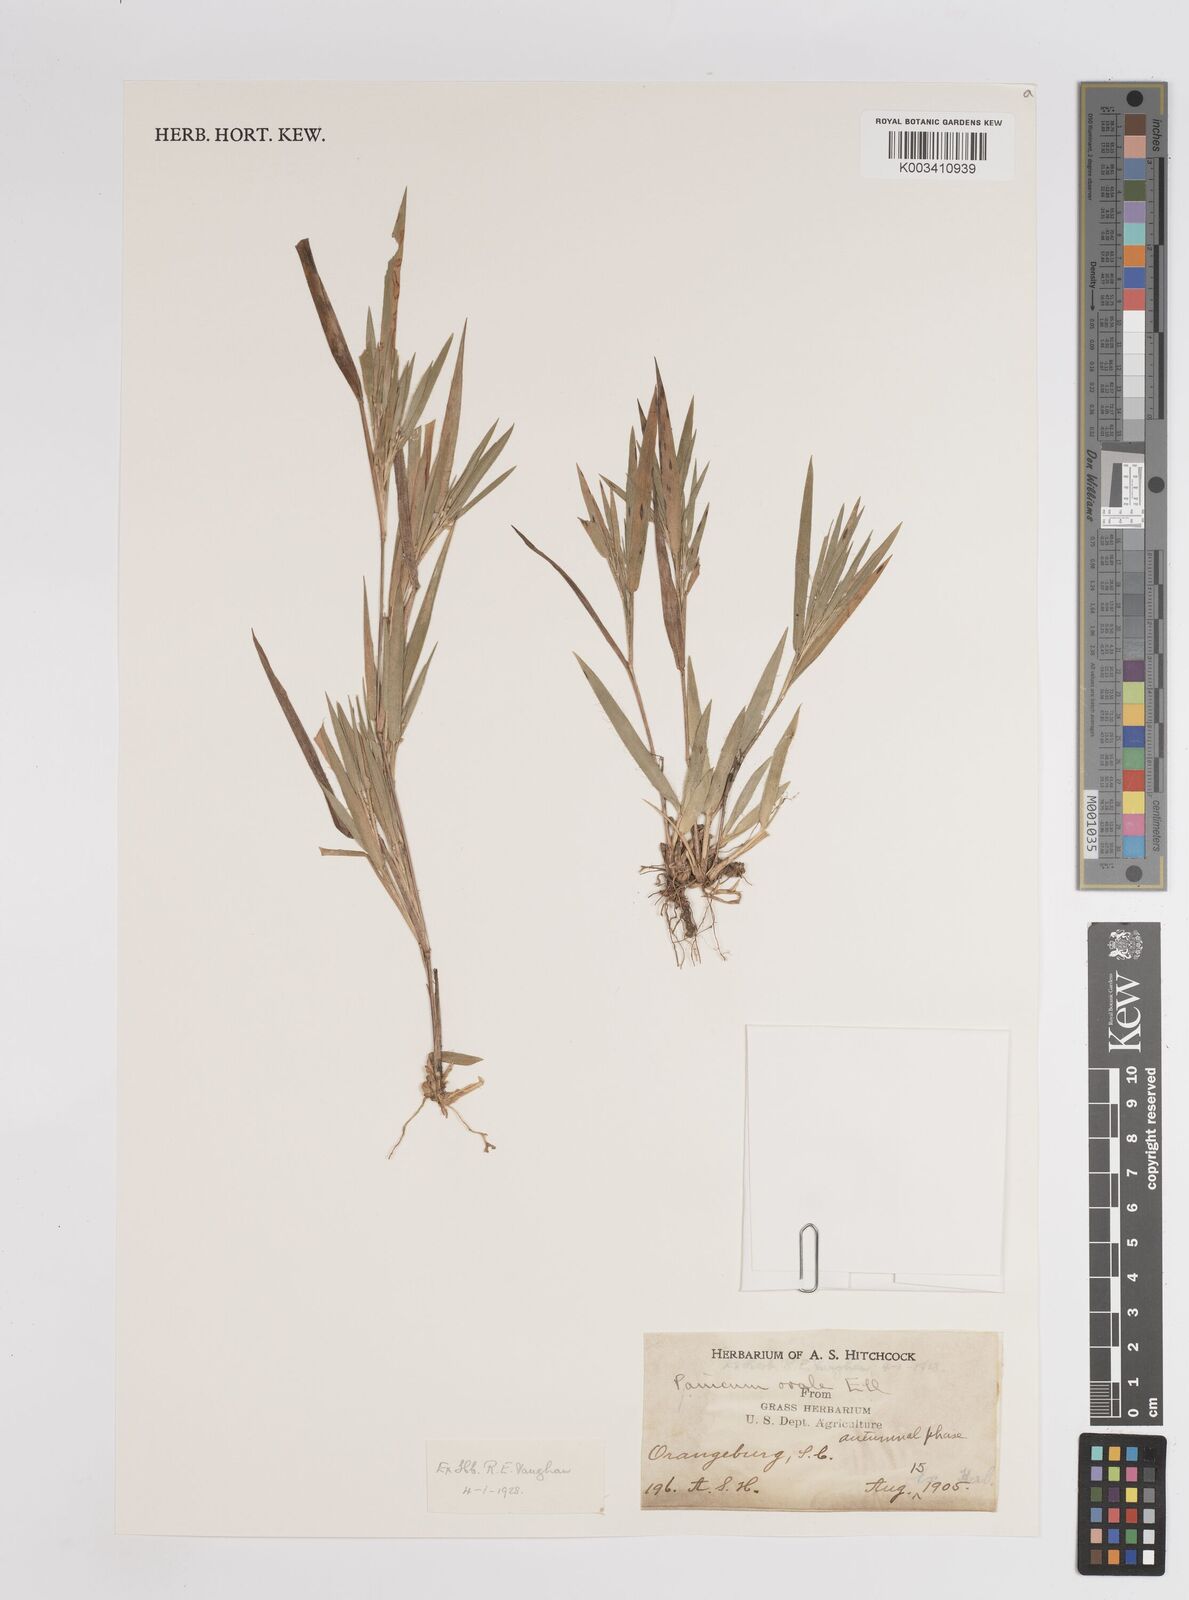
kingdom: Plantae
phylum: Tracheophyta
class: Liliopsida
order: Poales
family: Poaceae
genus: Dichanthelium
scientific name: Dichanthelium commonsianum
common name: Commons' panicgrass
